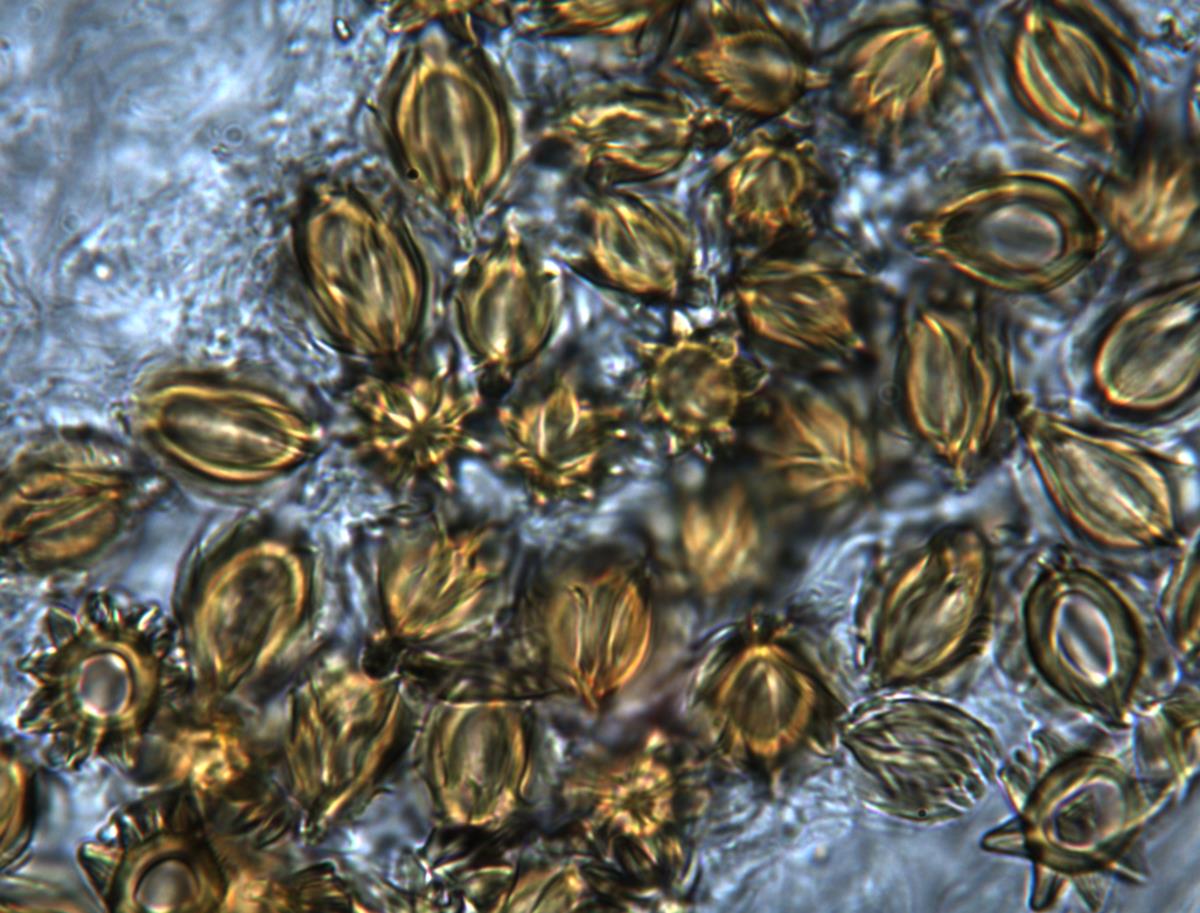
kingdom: Fungi
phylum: Basidiomycota
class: Agaricomycetes
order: Hysterangiales
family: Gallaceaceae
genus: Austrogautieria
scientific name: Austrogautieria
